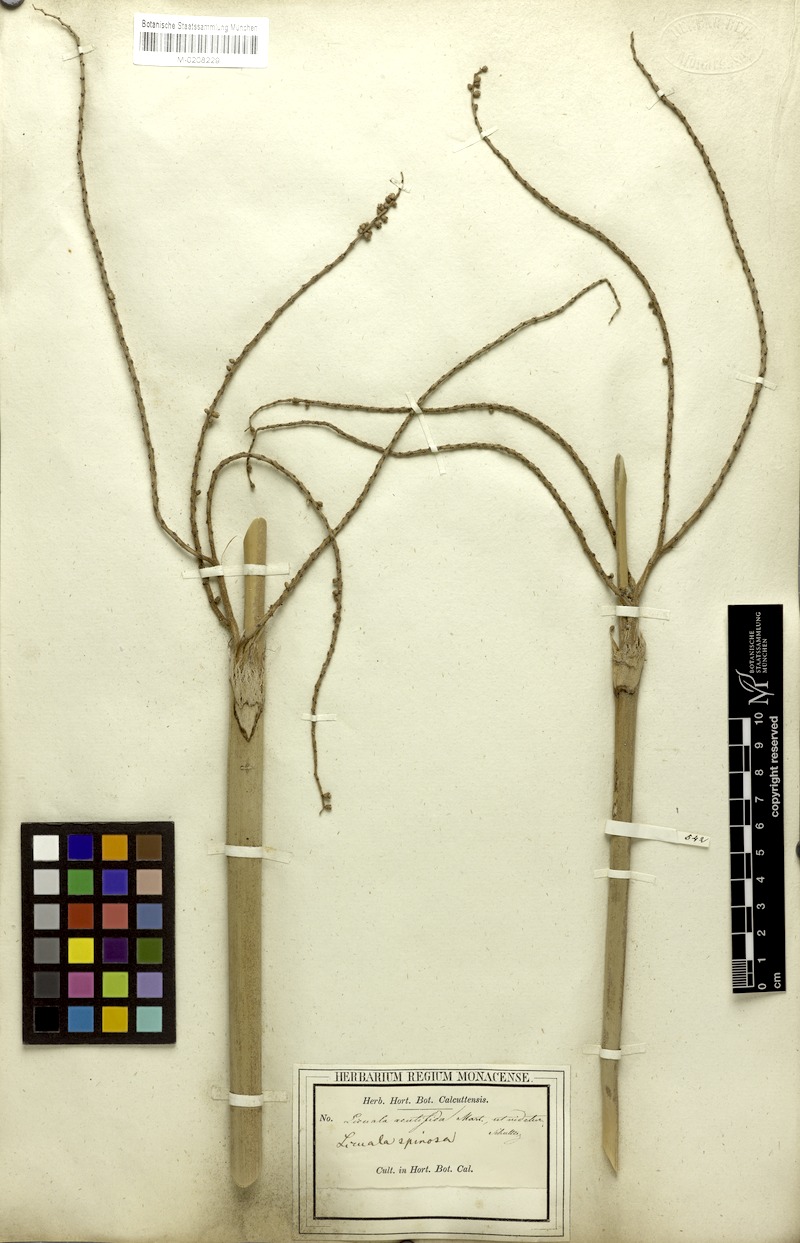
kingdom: Plantae
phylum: Tracheophyta
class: Liliopsida
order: Arecales
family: Arecaceae
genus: Licuala
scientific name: Licuala acutifida
